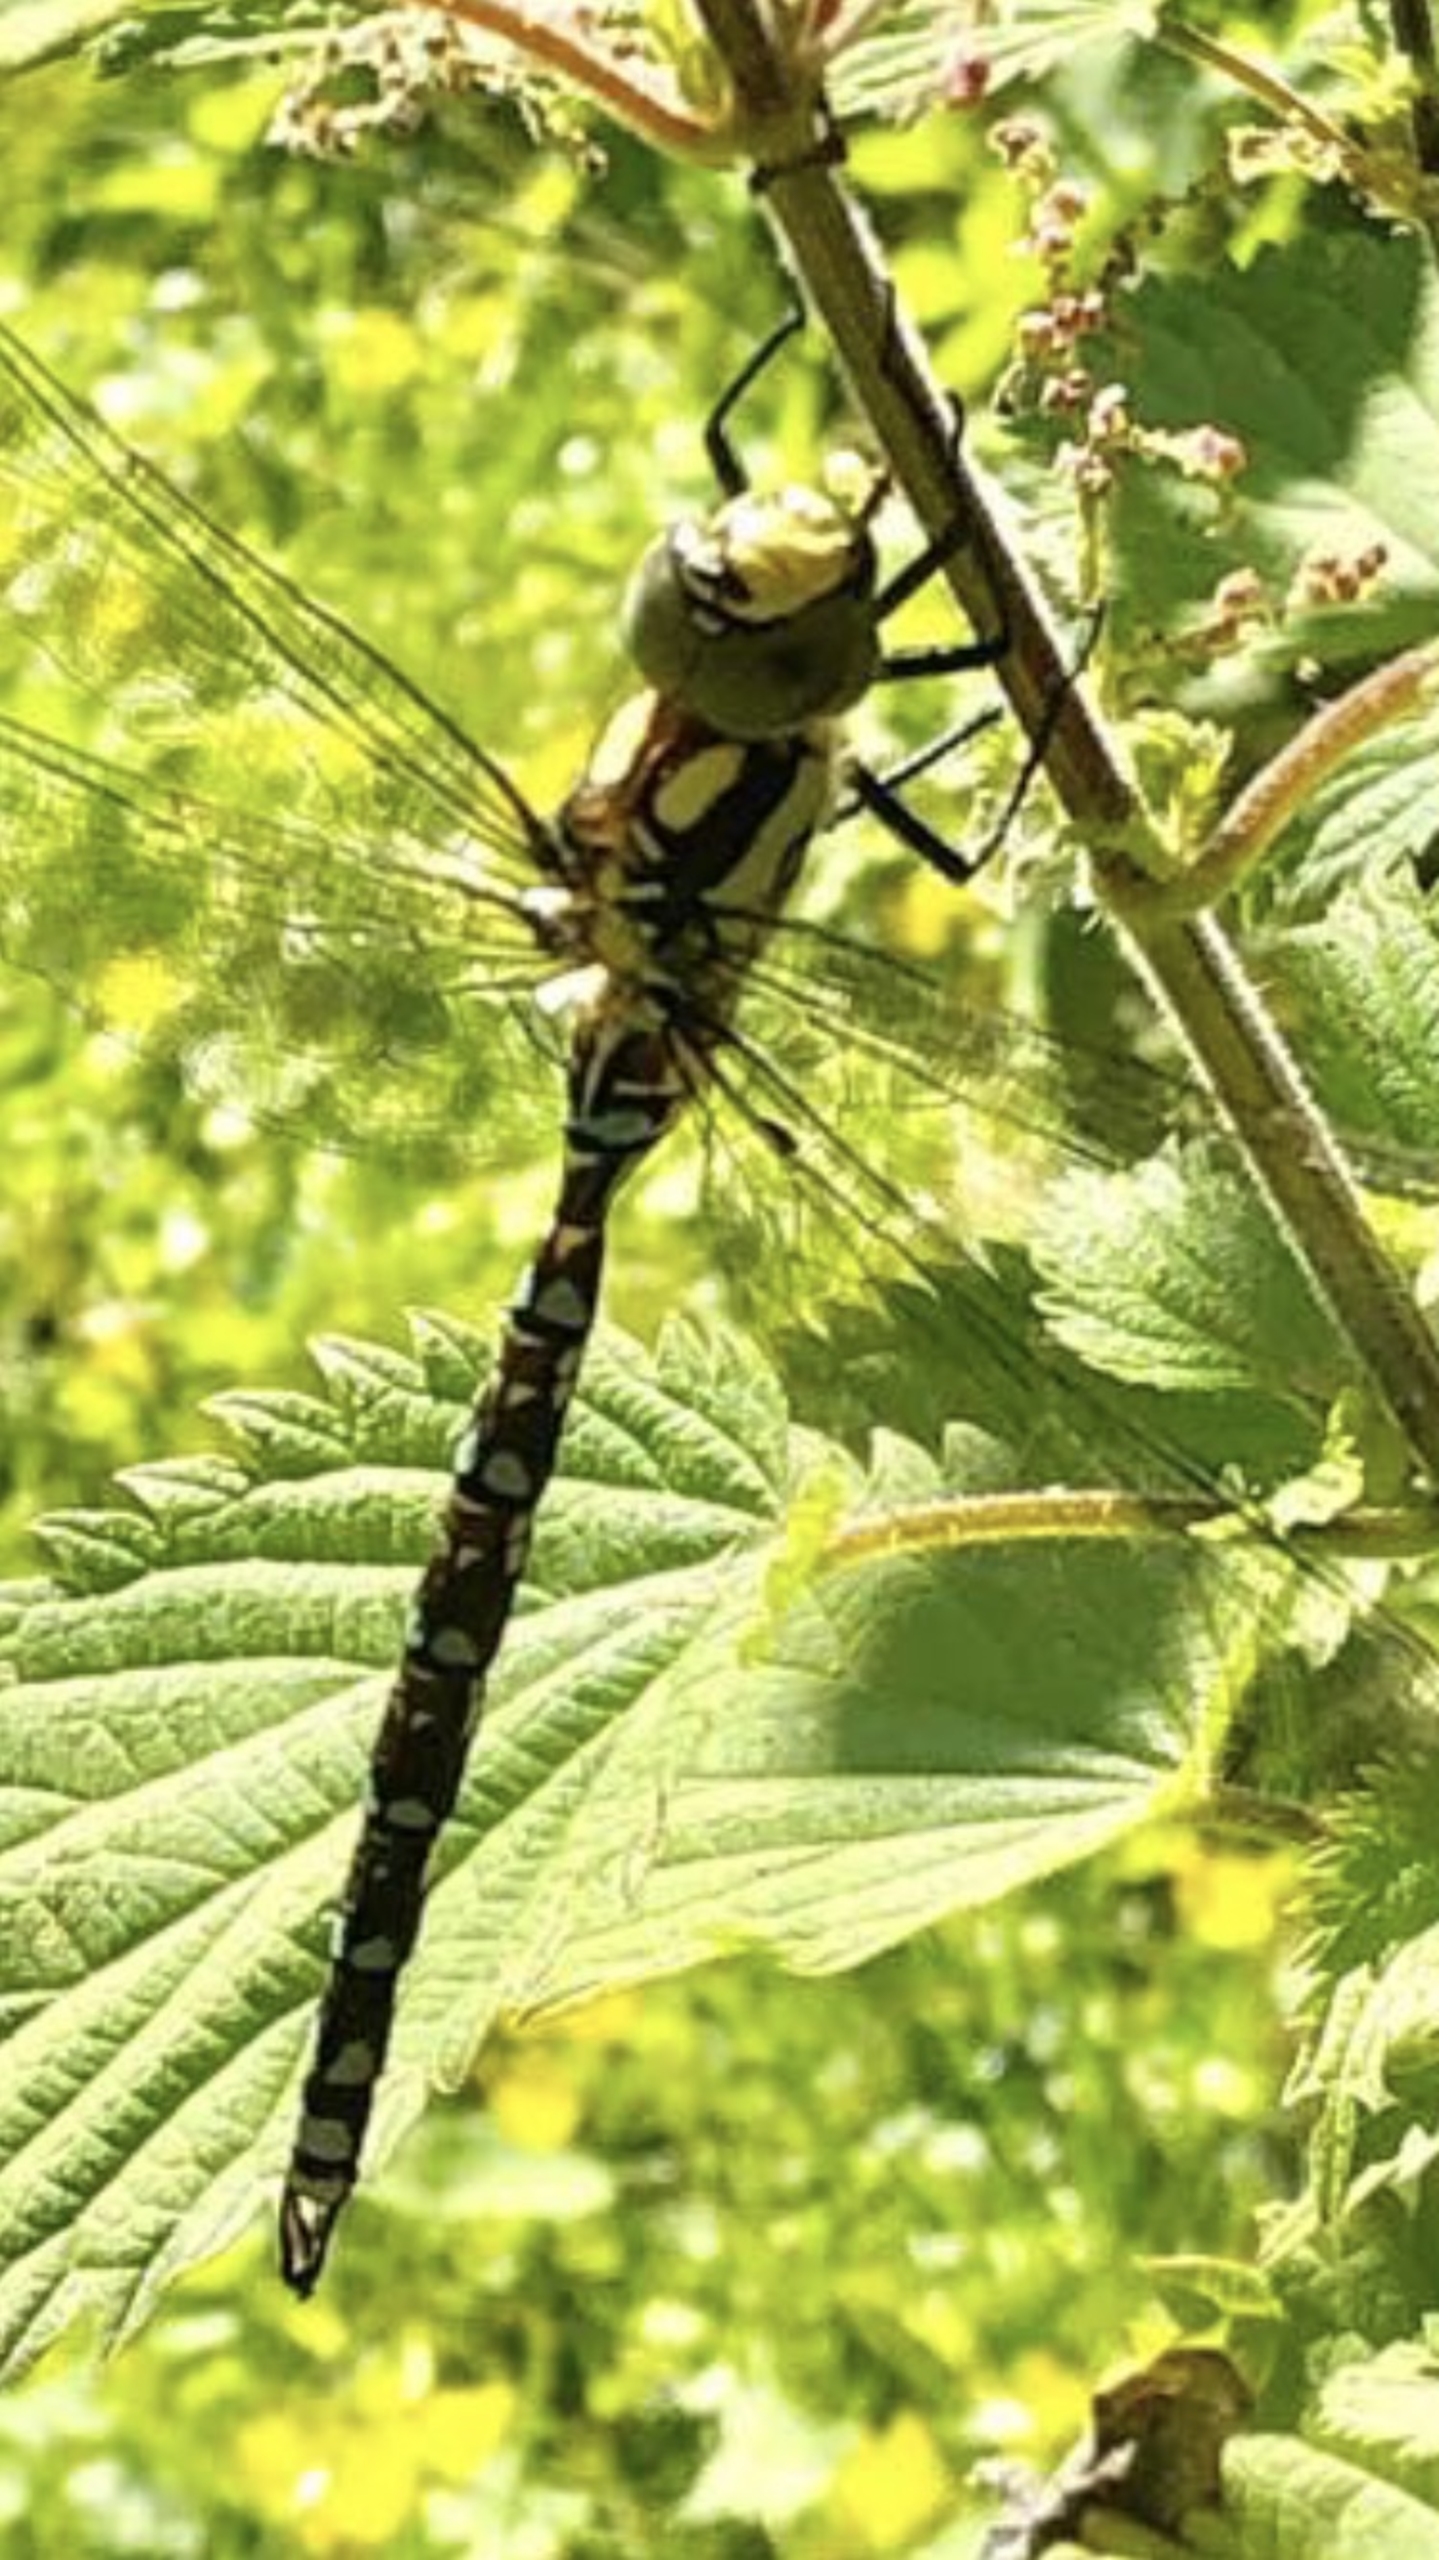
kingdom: Animalia
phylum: Arthropoda
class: Insecta
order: Odonata
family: Aeshnidae
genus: Aeshna
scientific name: Aeshna cyanea
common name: Blå mosaikguldsmed
